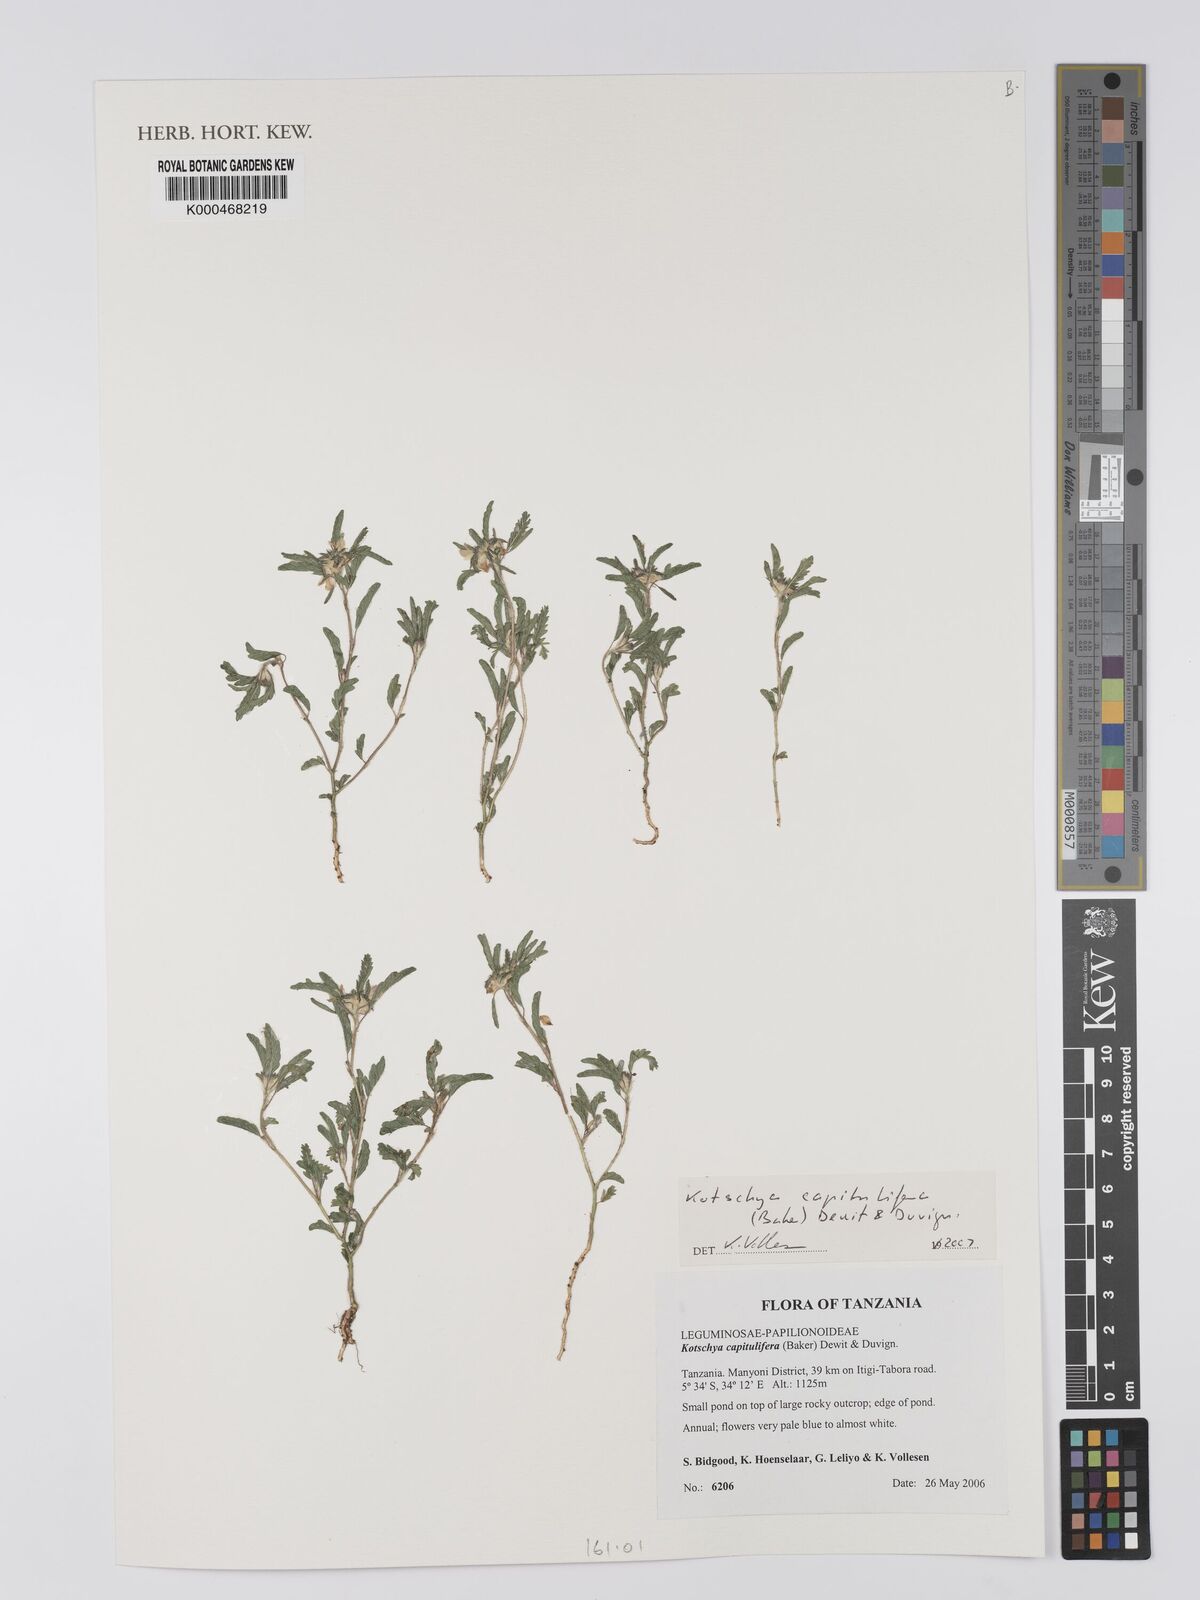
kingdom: Plantae
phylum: Tracheophyta
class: Magnoliopsida
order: Fabales
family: Fabaceae
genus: Kotschya
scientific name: Kotschya capitulifera
